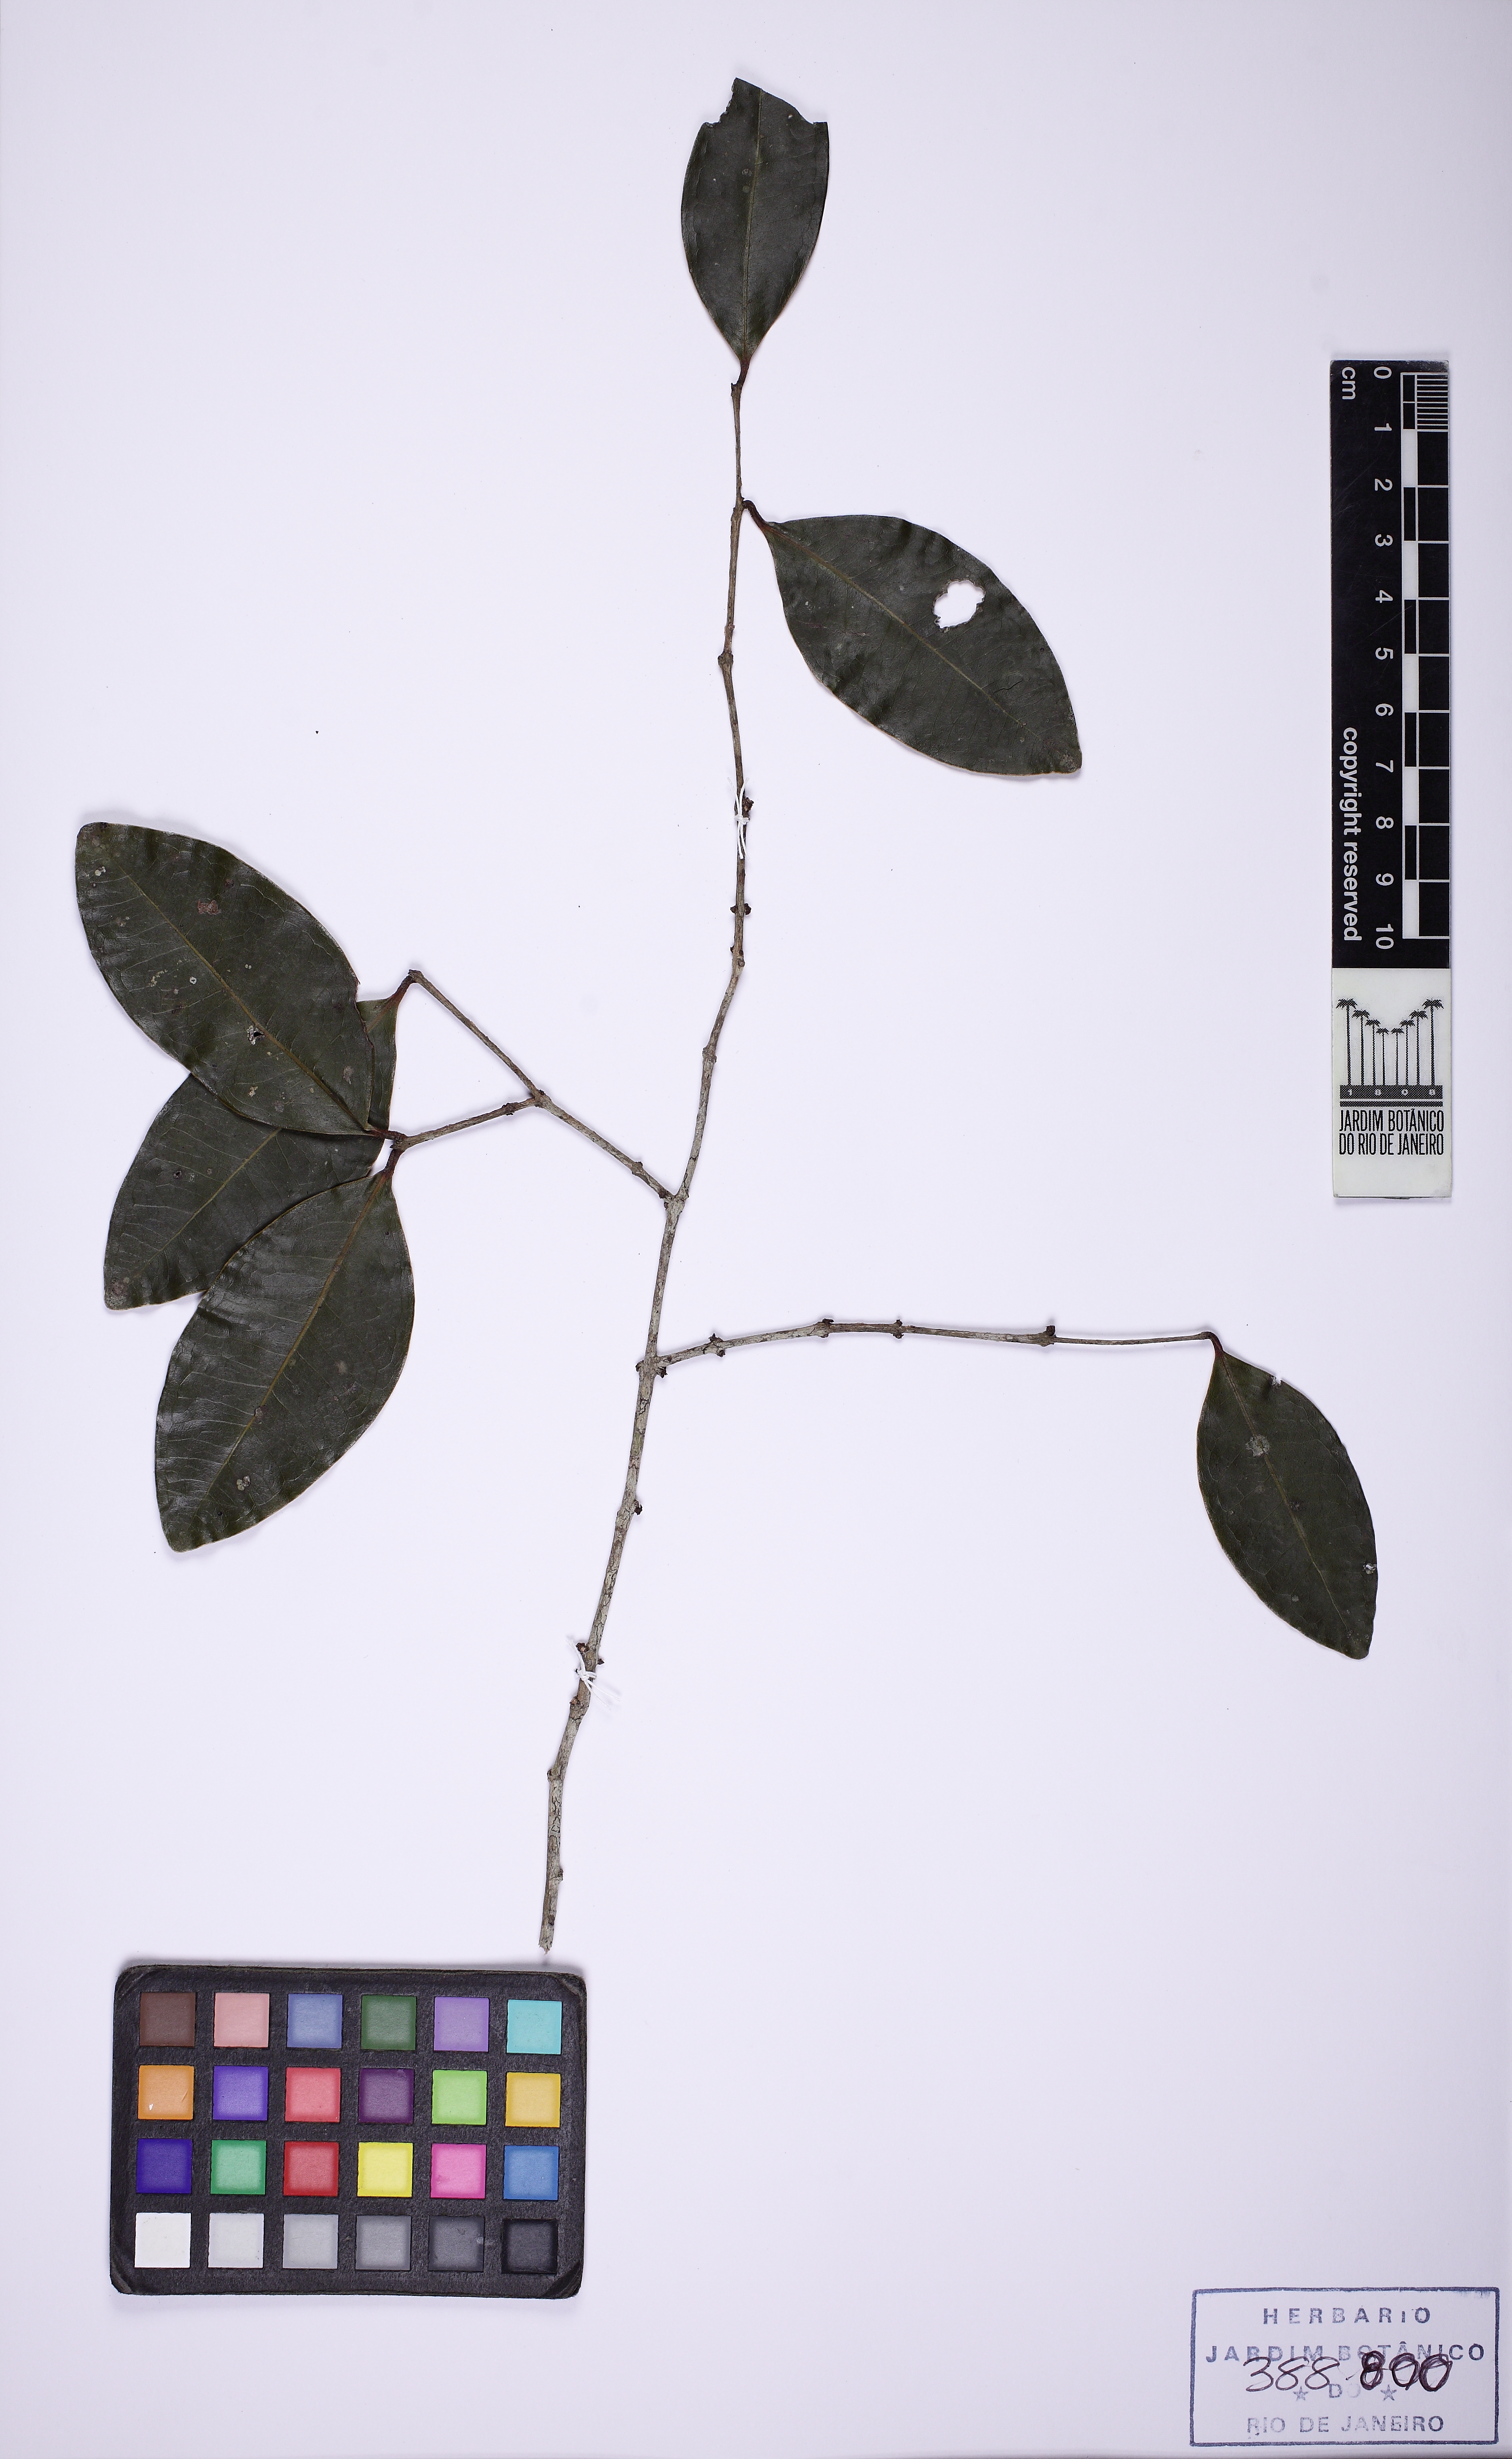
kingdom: Plantae
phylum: Tracheophyta
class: Magnoliopsida
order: Myrtales
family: Myrtaceae
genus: Eugenia
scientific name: Eugenia
